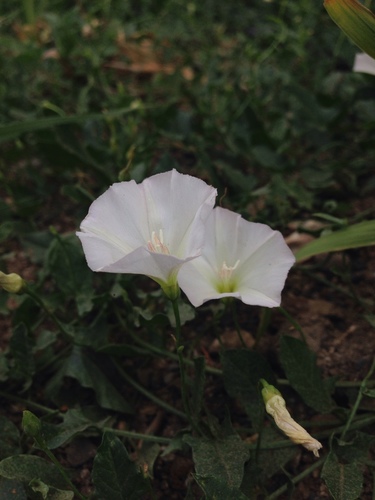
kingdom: Plantae
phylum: Tracheophyta
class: Magnoliopsida
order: Solanales
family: Convolvulaceae
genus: Convolvulus
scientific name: Convolvulus arvensis
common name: Field bindweed
